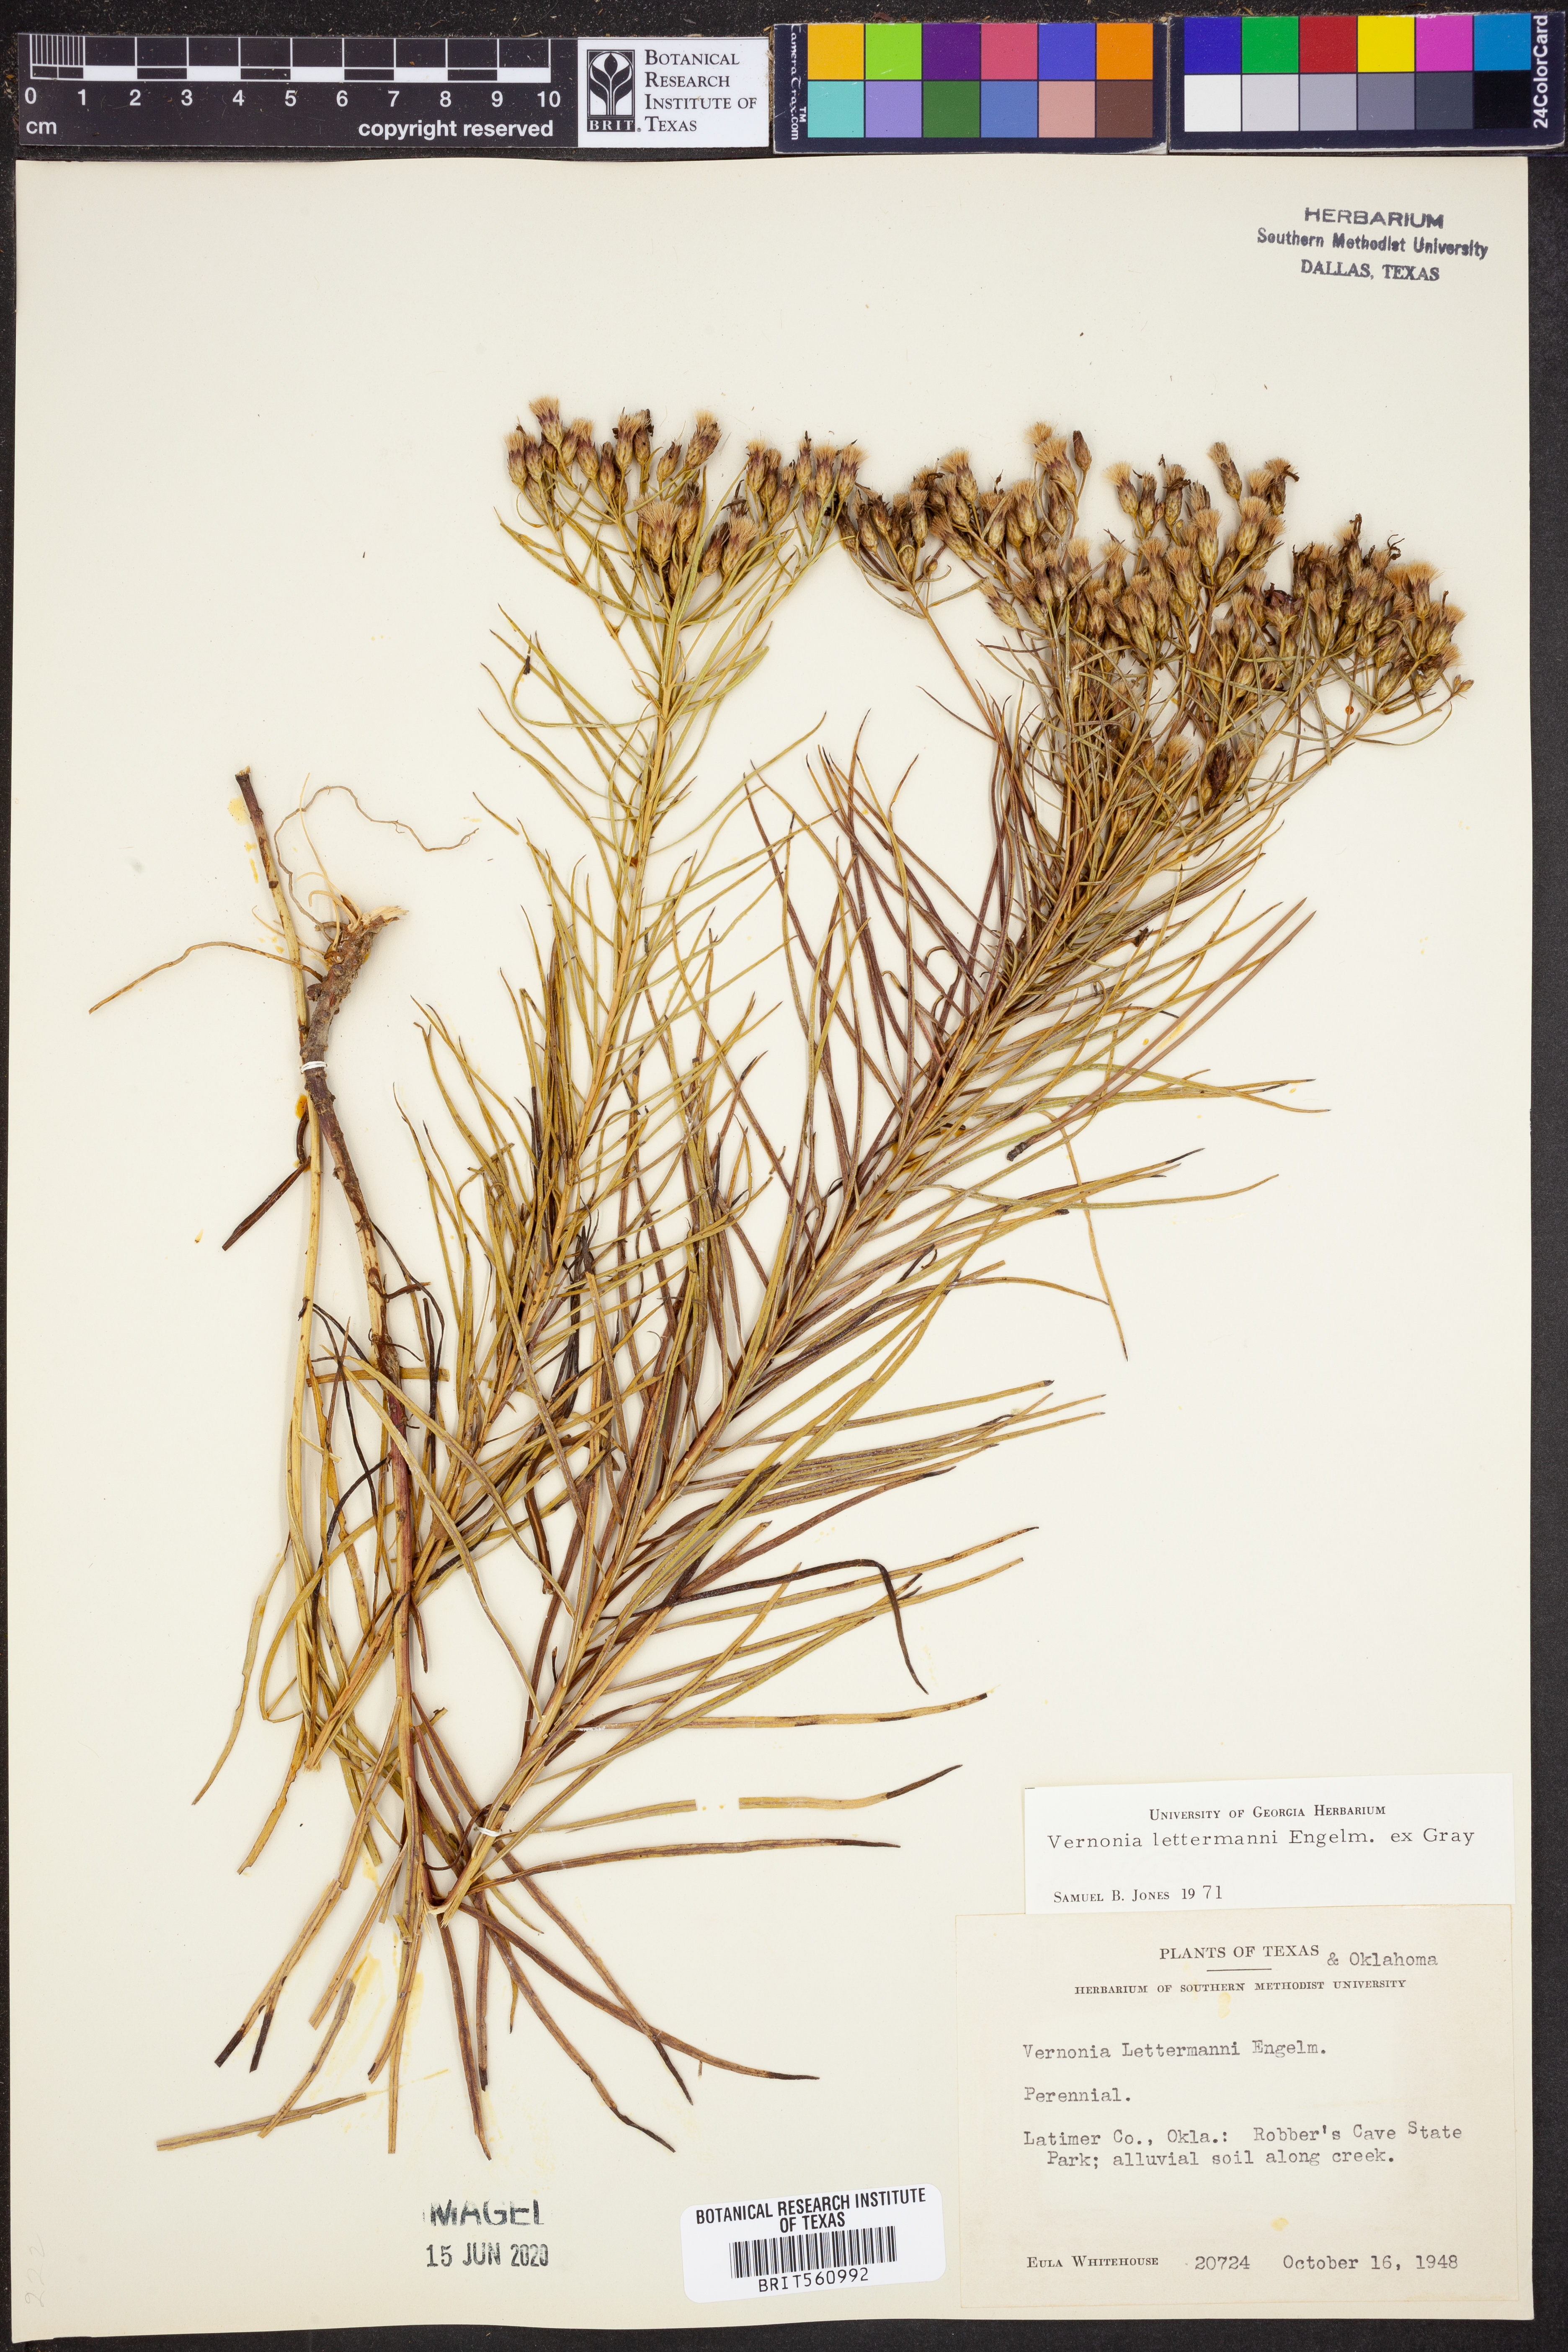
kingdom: Plantae
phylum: Tracheophyta
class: Magnoliopsida
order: Asterales
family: Asteraceae
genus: Vernonia
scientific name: Vernonia lettermannii
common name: Lettermann's ironweed
